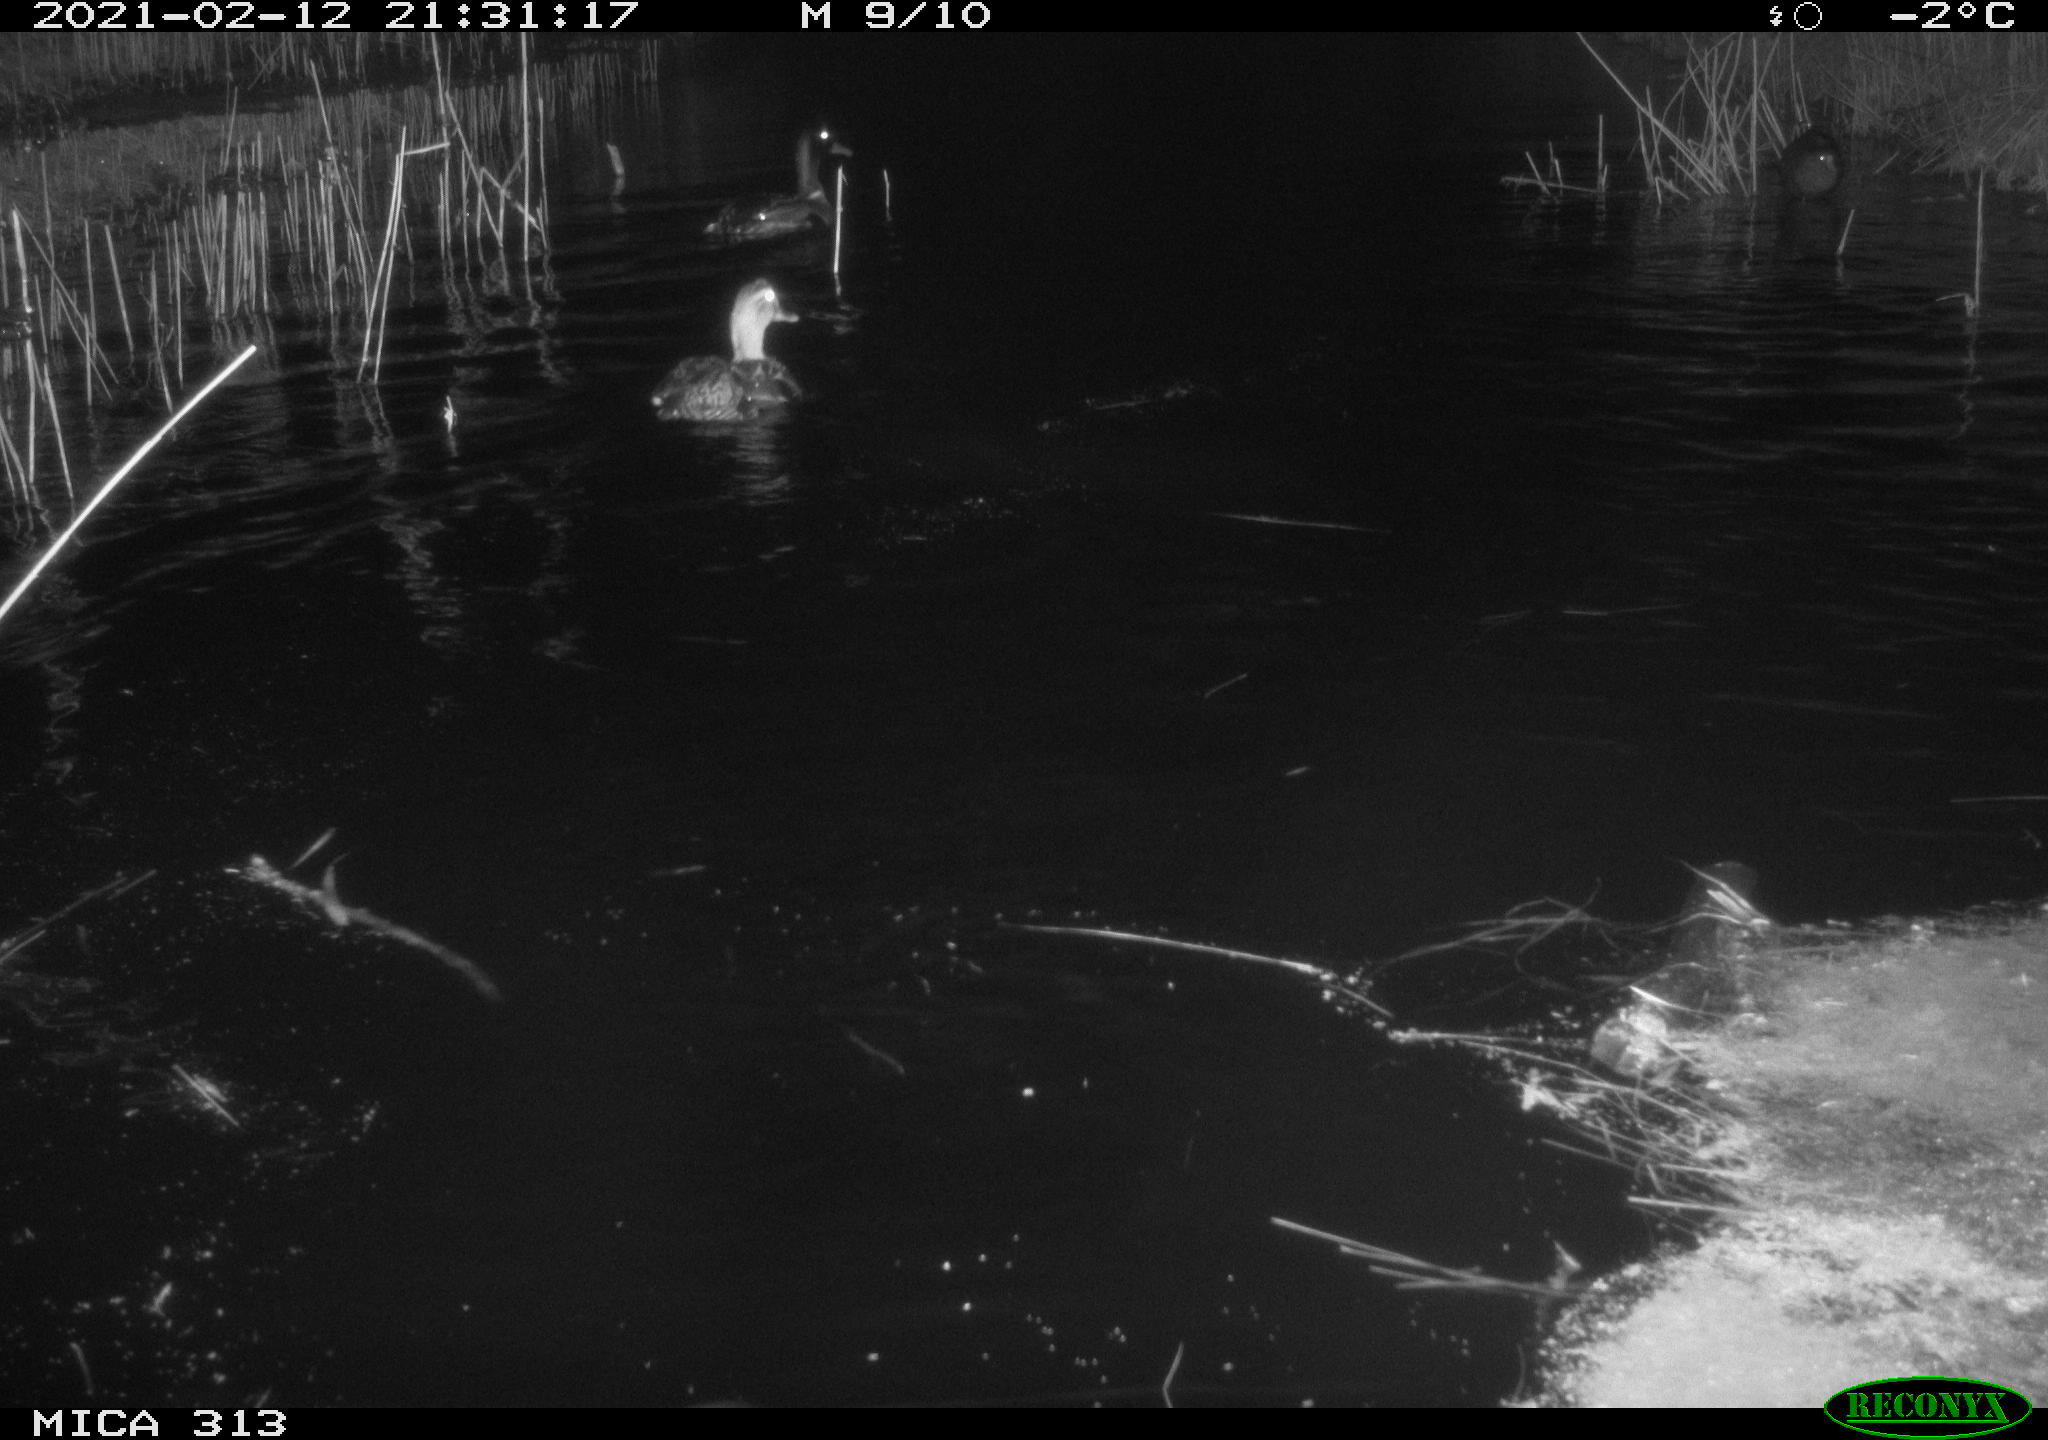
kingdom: Animalia
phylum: Chordata
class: Aves
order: Anseriformes
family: Anatidae
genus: Anas
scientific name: Anas
